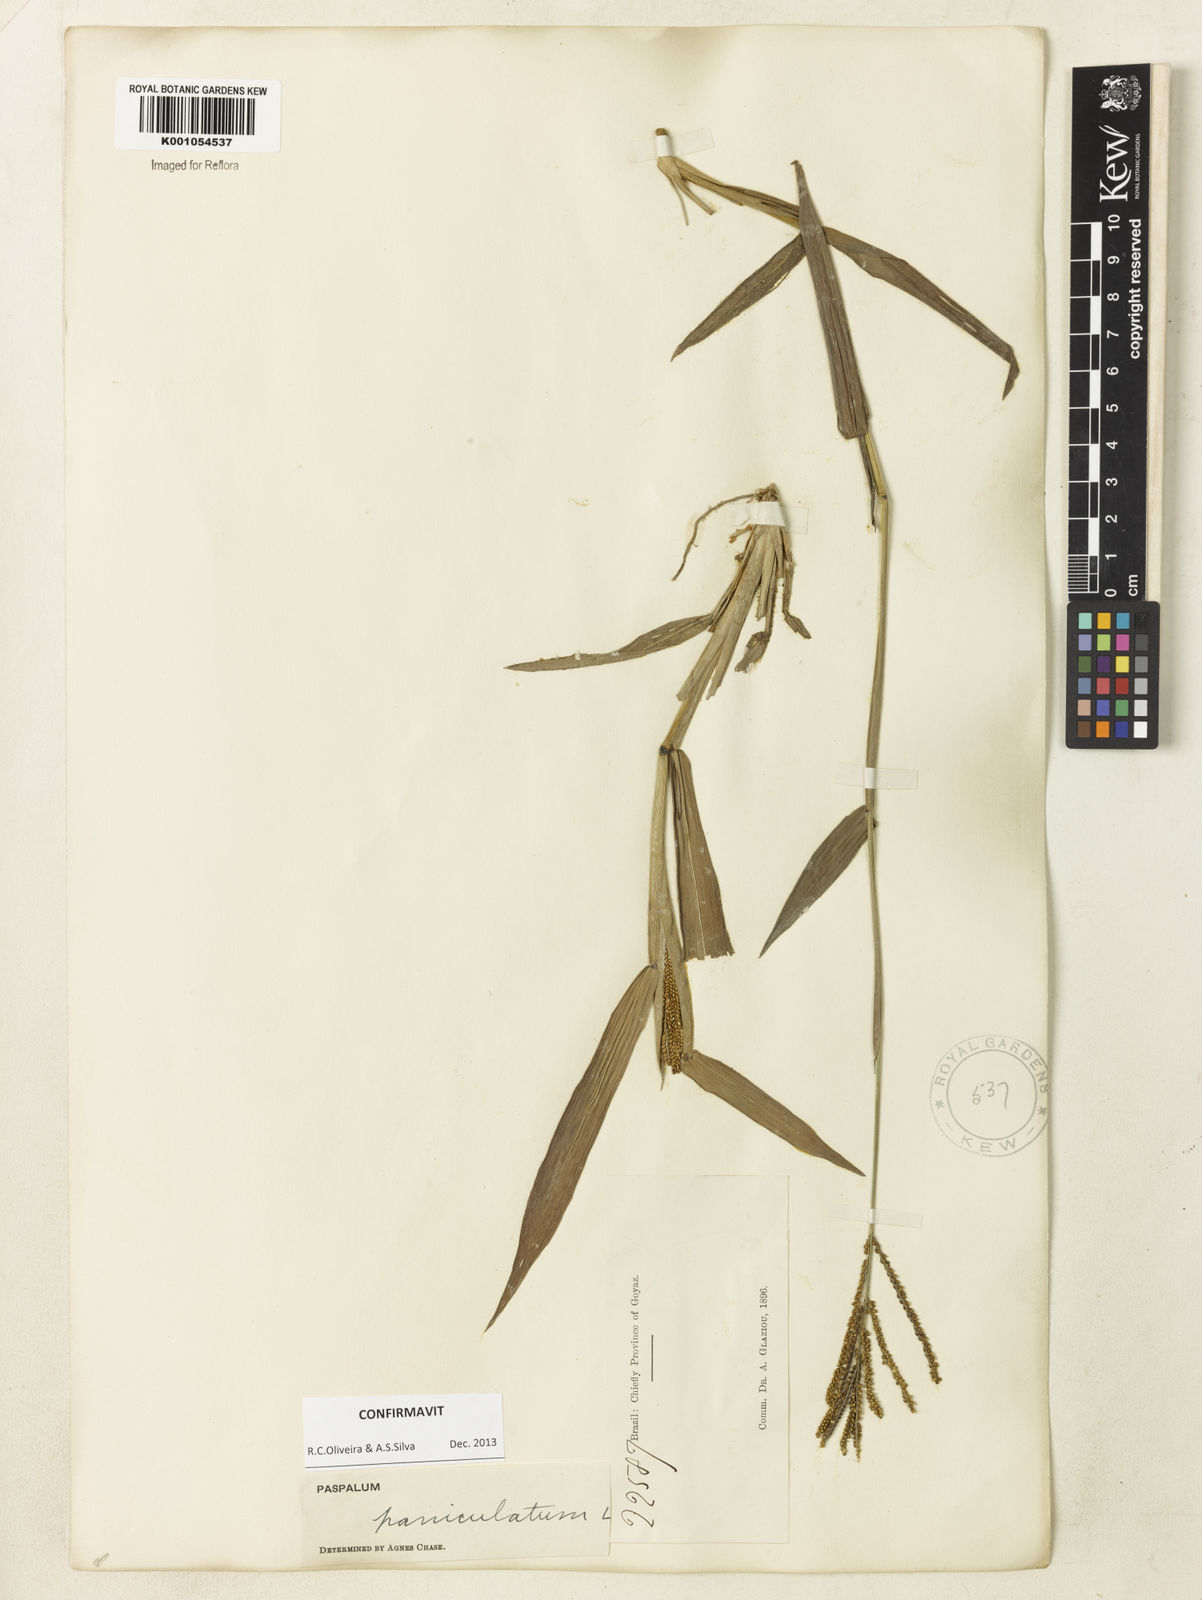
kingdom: Plantae
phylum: Tracheophyta
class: Liliopsida
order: Poales
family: Poaceae
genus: Paspalum
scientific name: Paspalum paniculatum
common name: Arrocillo
